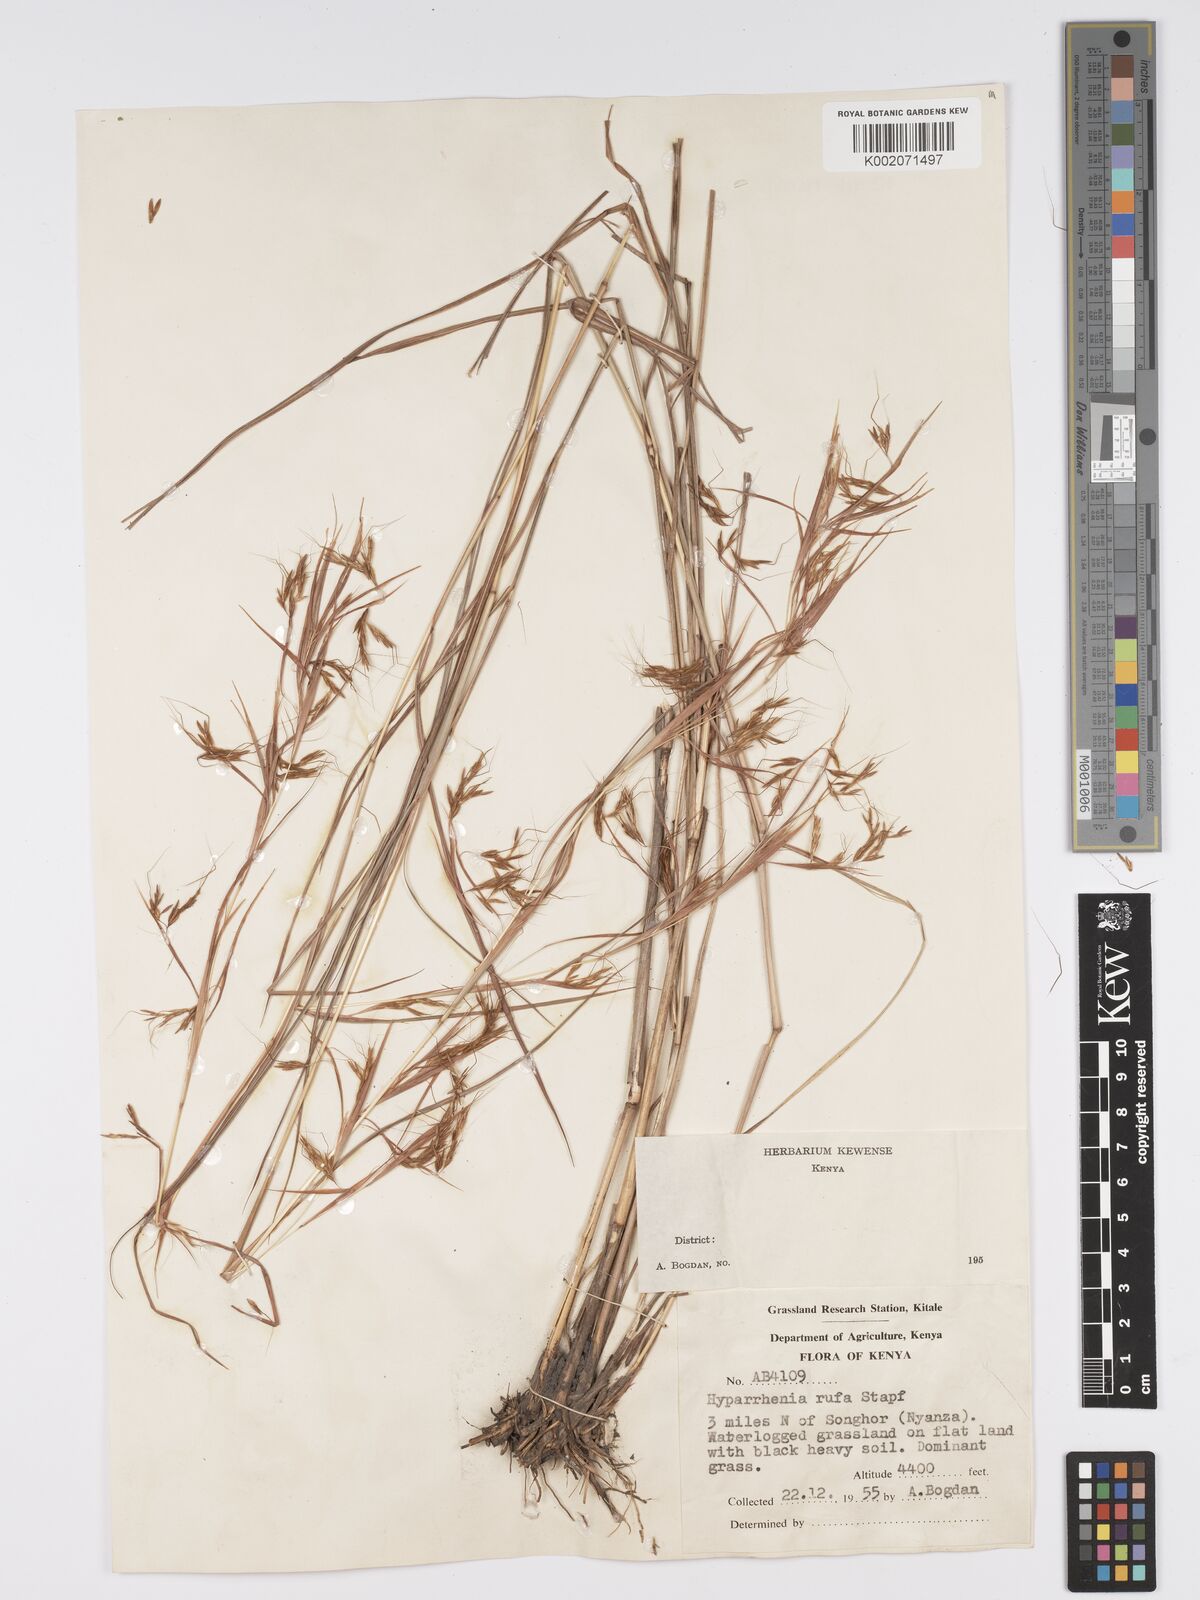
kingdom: Plantae
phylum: Tracheophyta
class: Liliopsida
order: Poales
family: Poaceae
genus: Hyparrhenia
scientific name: Hyparrhenia rufa
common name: Jaraguagrass
